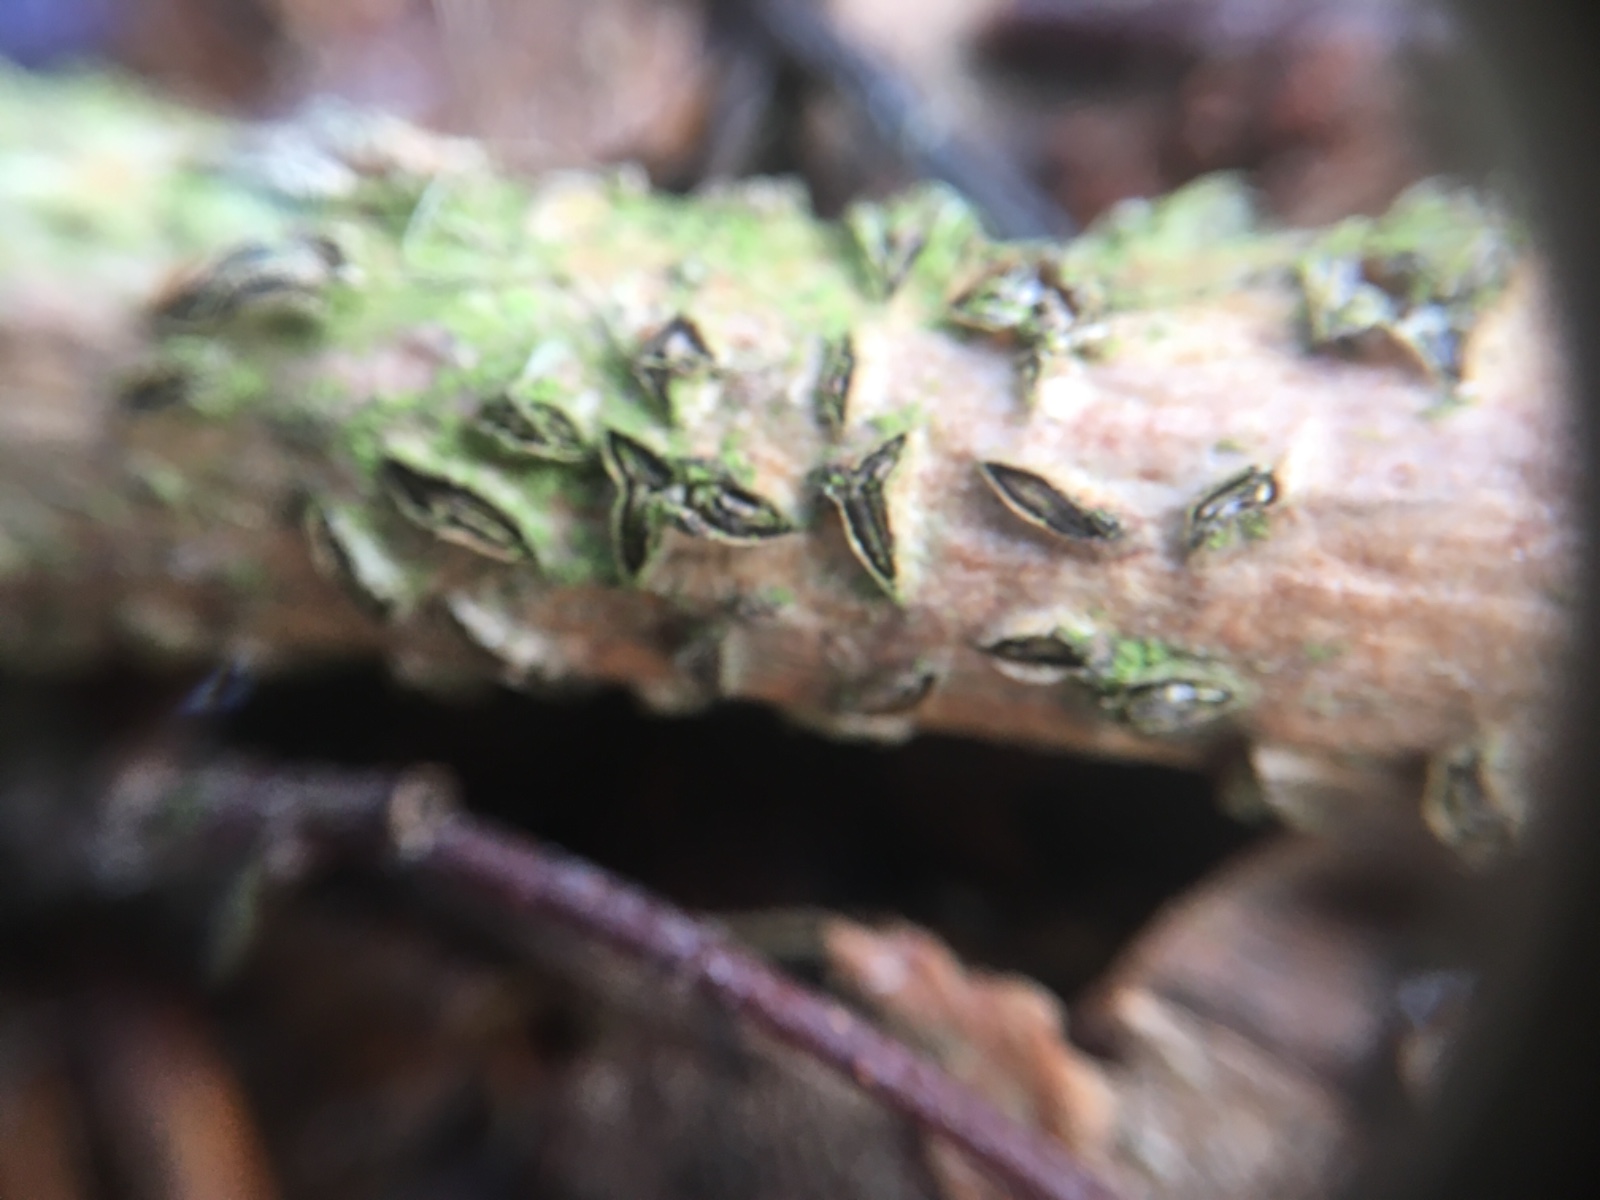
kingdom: Fungi
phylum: Ascomycota
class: Leotiomycetes
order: Rhytismatales
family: Rhytismataceae
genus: Colpoma
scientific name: Colpoma quercinum
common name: ege-sprækkeskive
